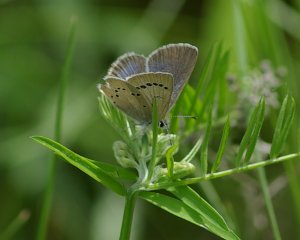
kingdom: Animalia
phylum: Arthropoda
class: Insecta
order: Lepidoptera
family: Lycaenidae
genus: Glaucopsyche
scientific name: Glaucopsyche lygdamus
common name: Silvery Blue
